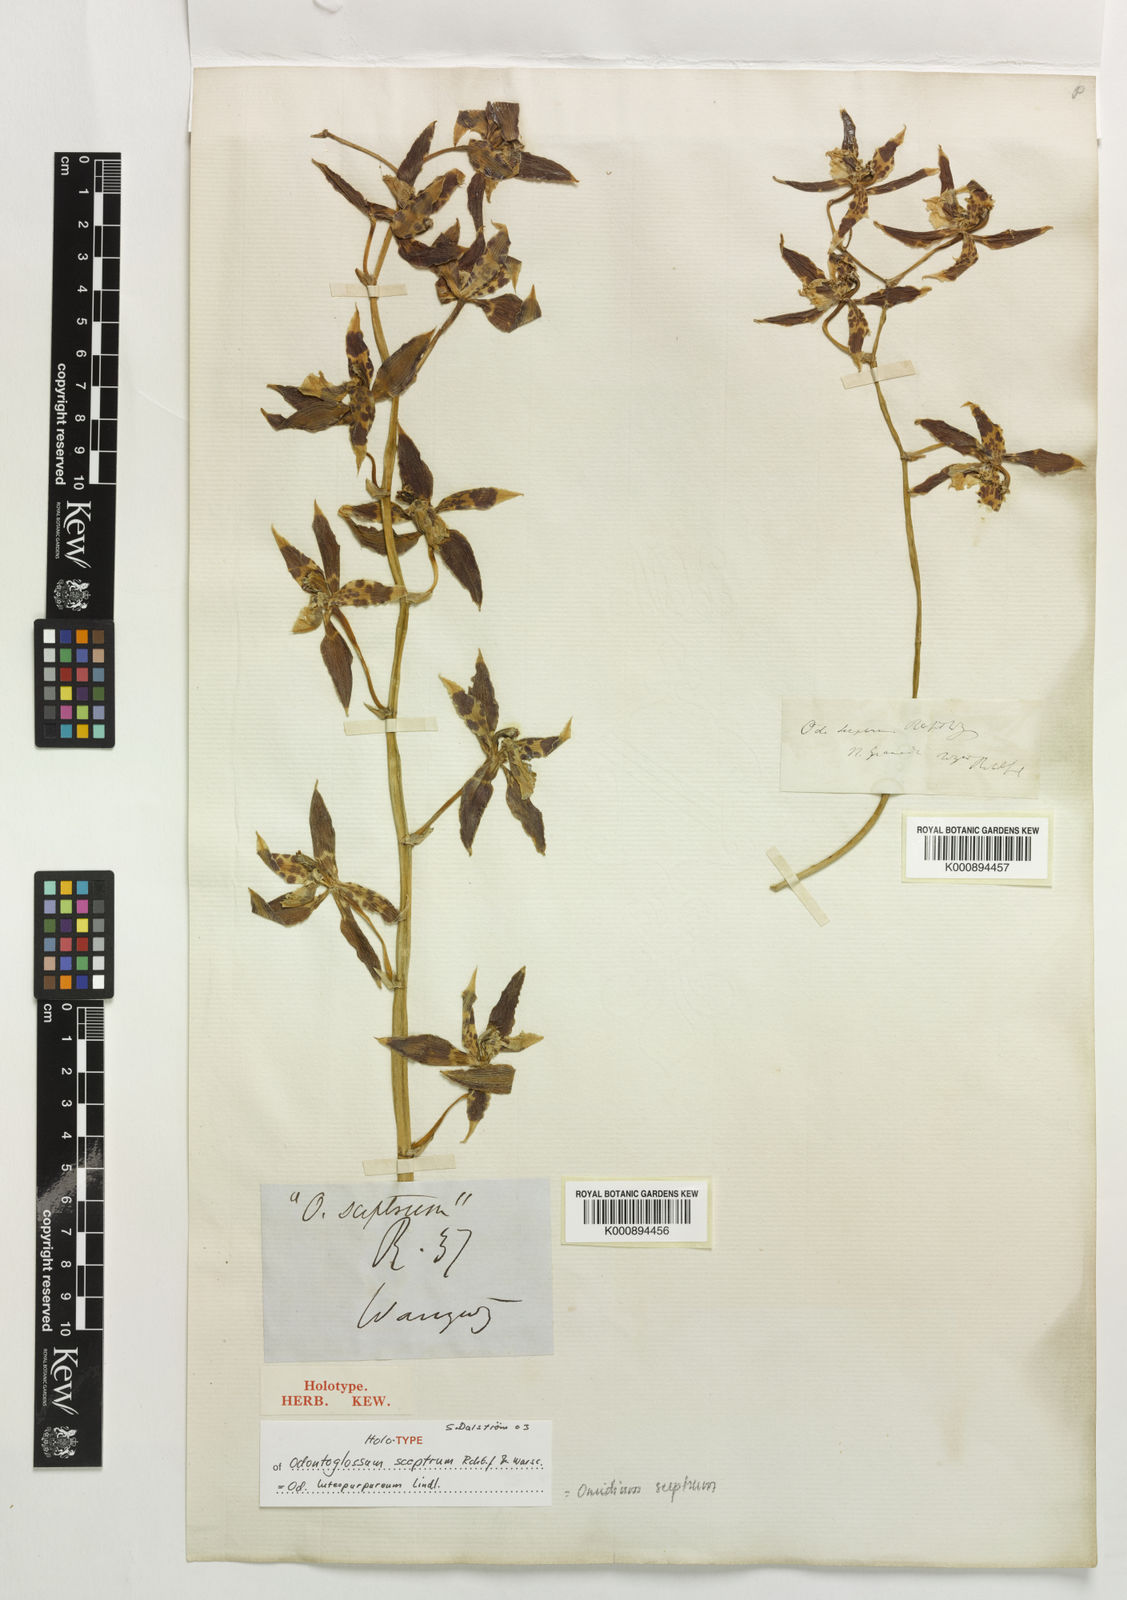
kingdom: Plantae
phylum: Tracheophyta
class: Liliopsida
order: Asparagales
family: Orchidaceae
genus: Oncidium
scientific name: Oncidium sceptrum
